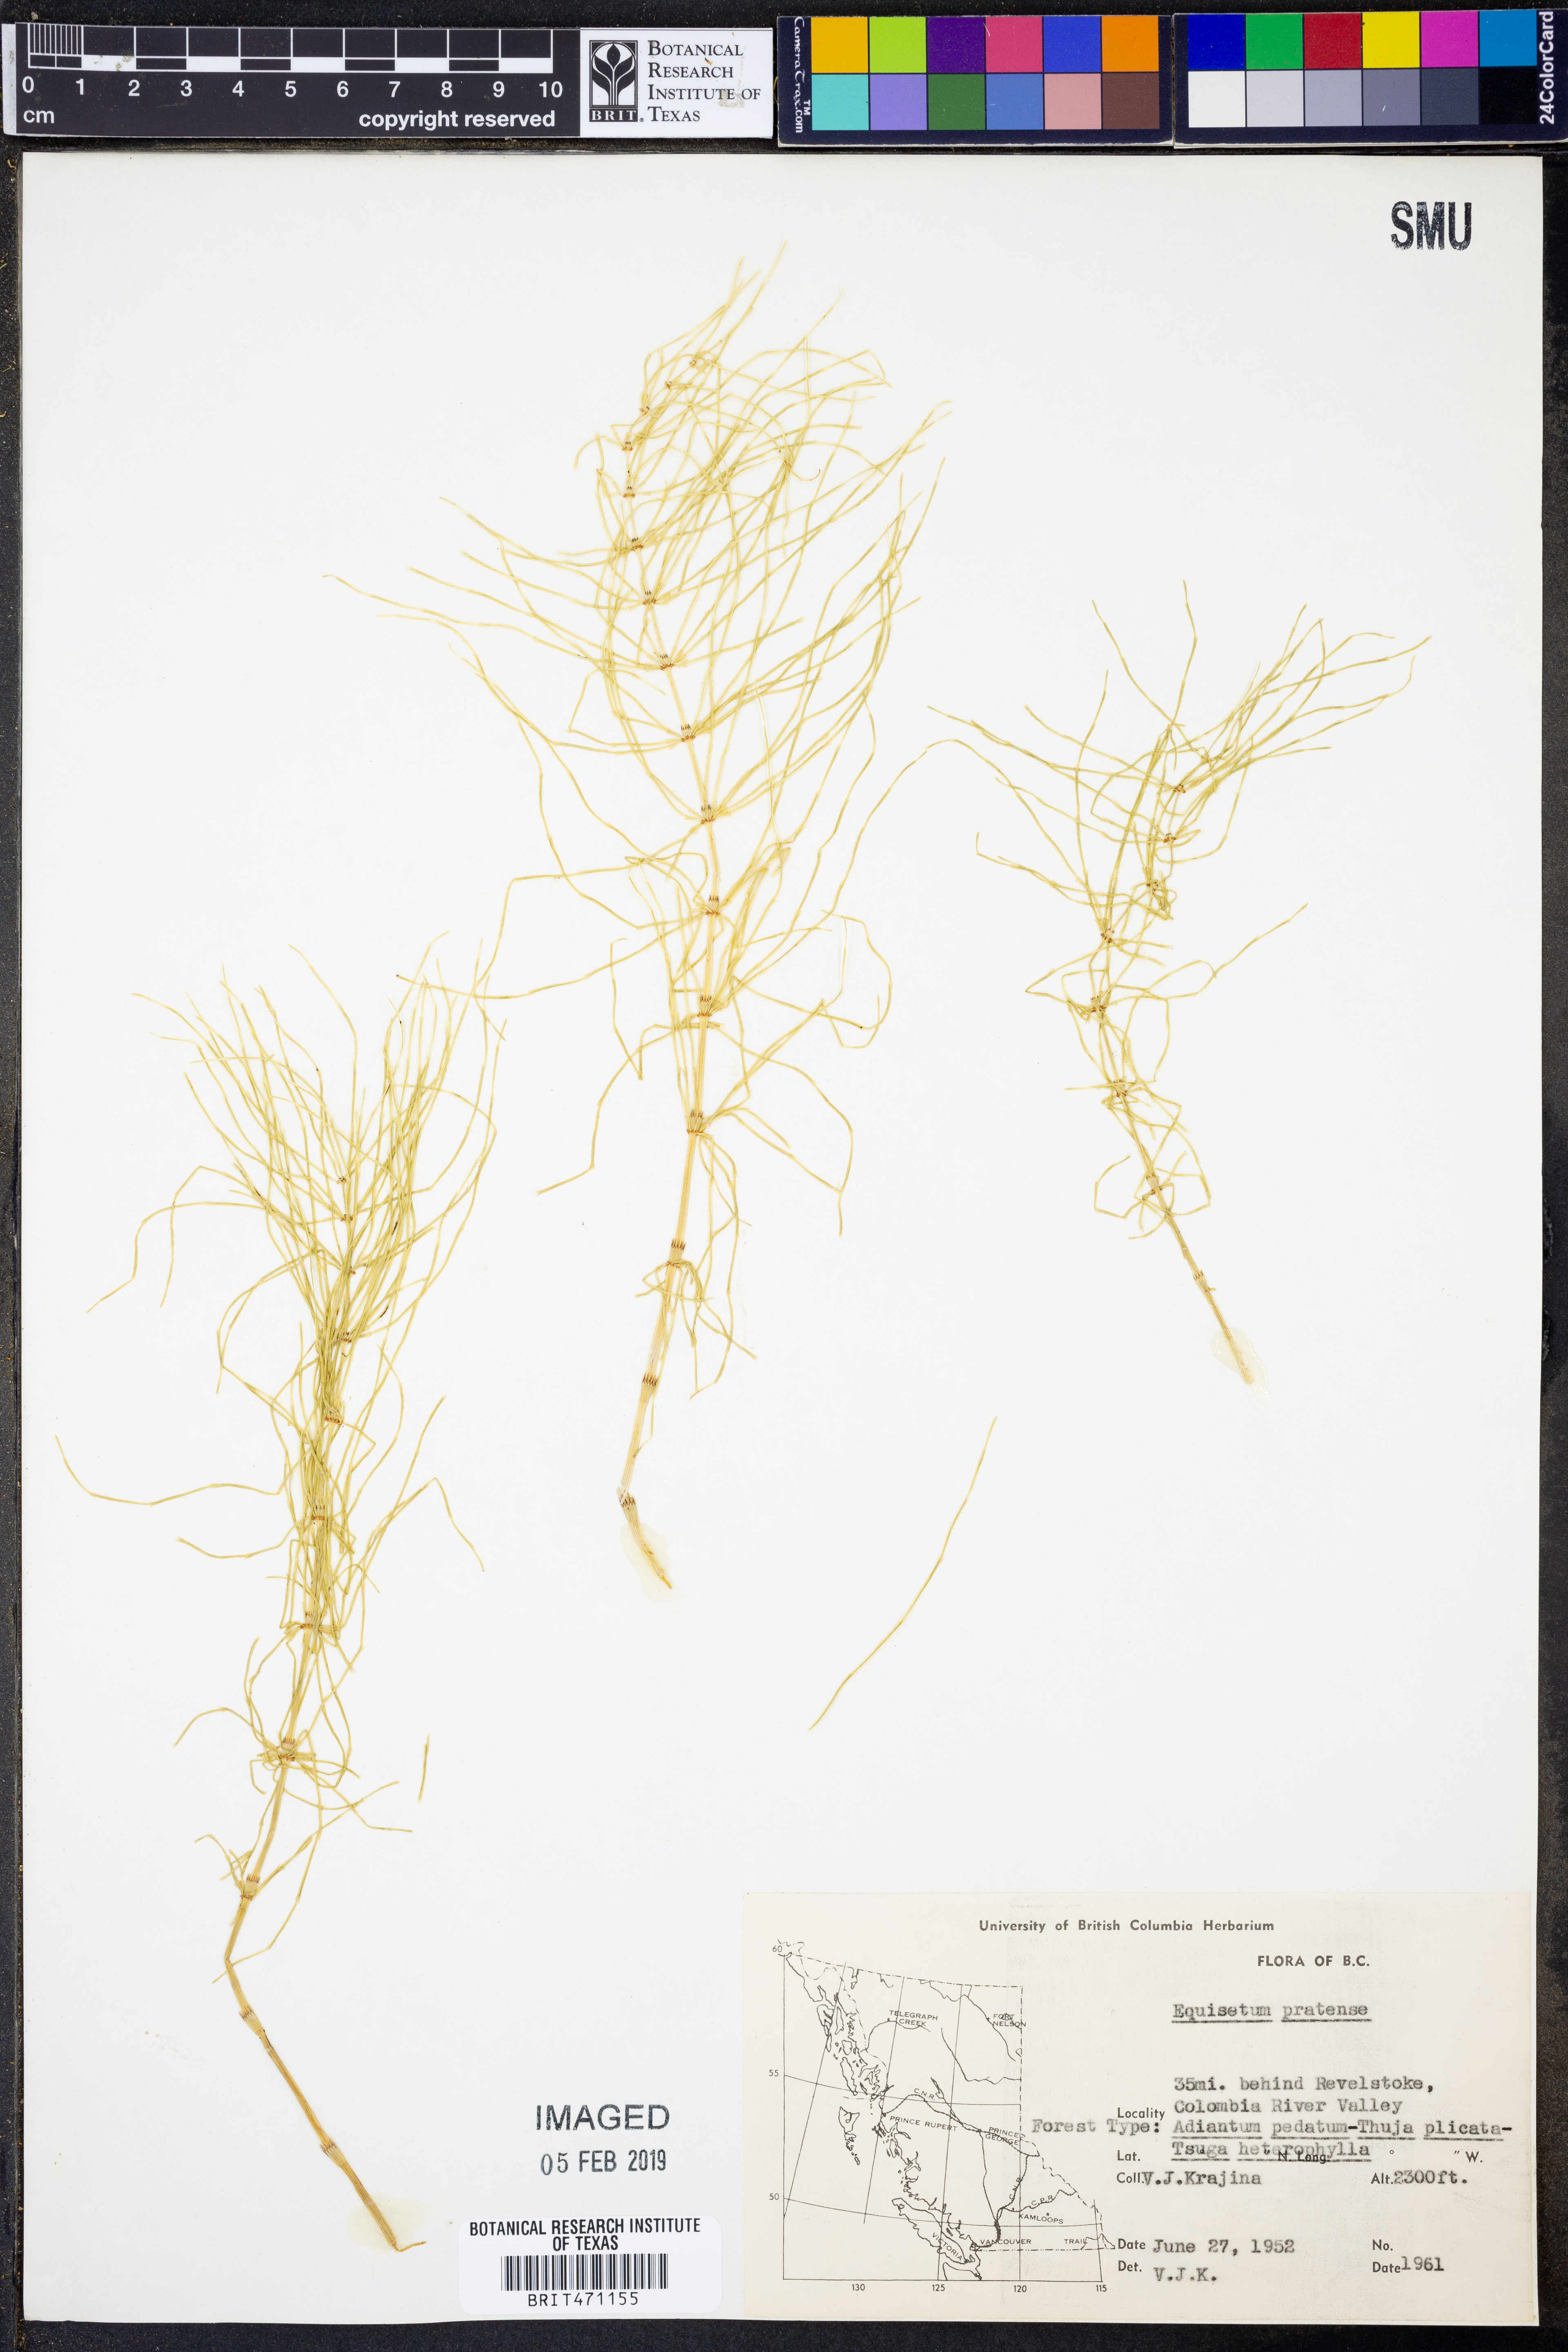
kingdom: Plantae
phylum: Tracheophyta
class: Polypodiopsida
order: Equisetales
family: Equisetaceae
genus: Equisetum
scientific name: Equisetum pratense
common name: Meadow horsetail
